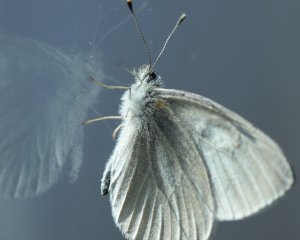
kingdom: Animalia
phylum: Arthropoda
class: Insecta
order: Lepidoptera
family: Pieridae
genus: Pieris
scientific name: Pieris virginiensis
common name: West Virginia White
